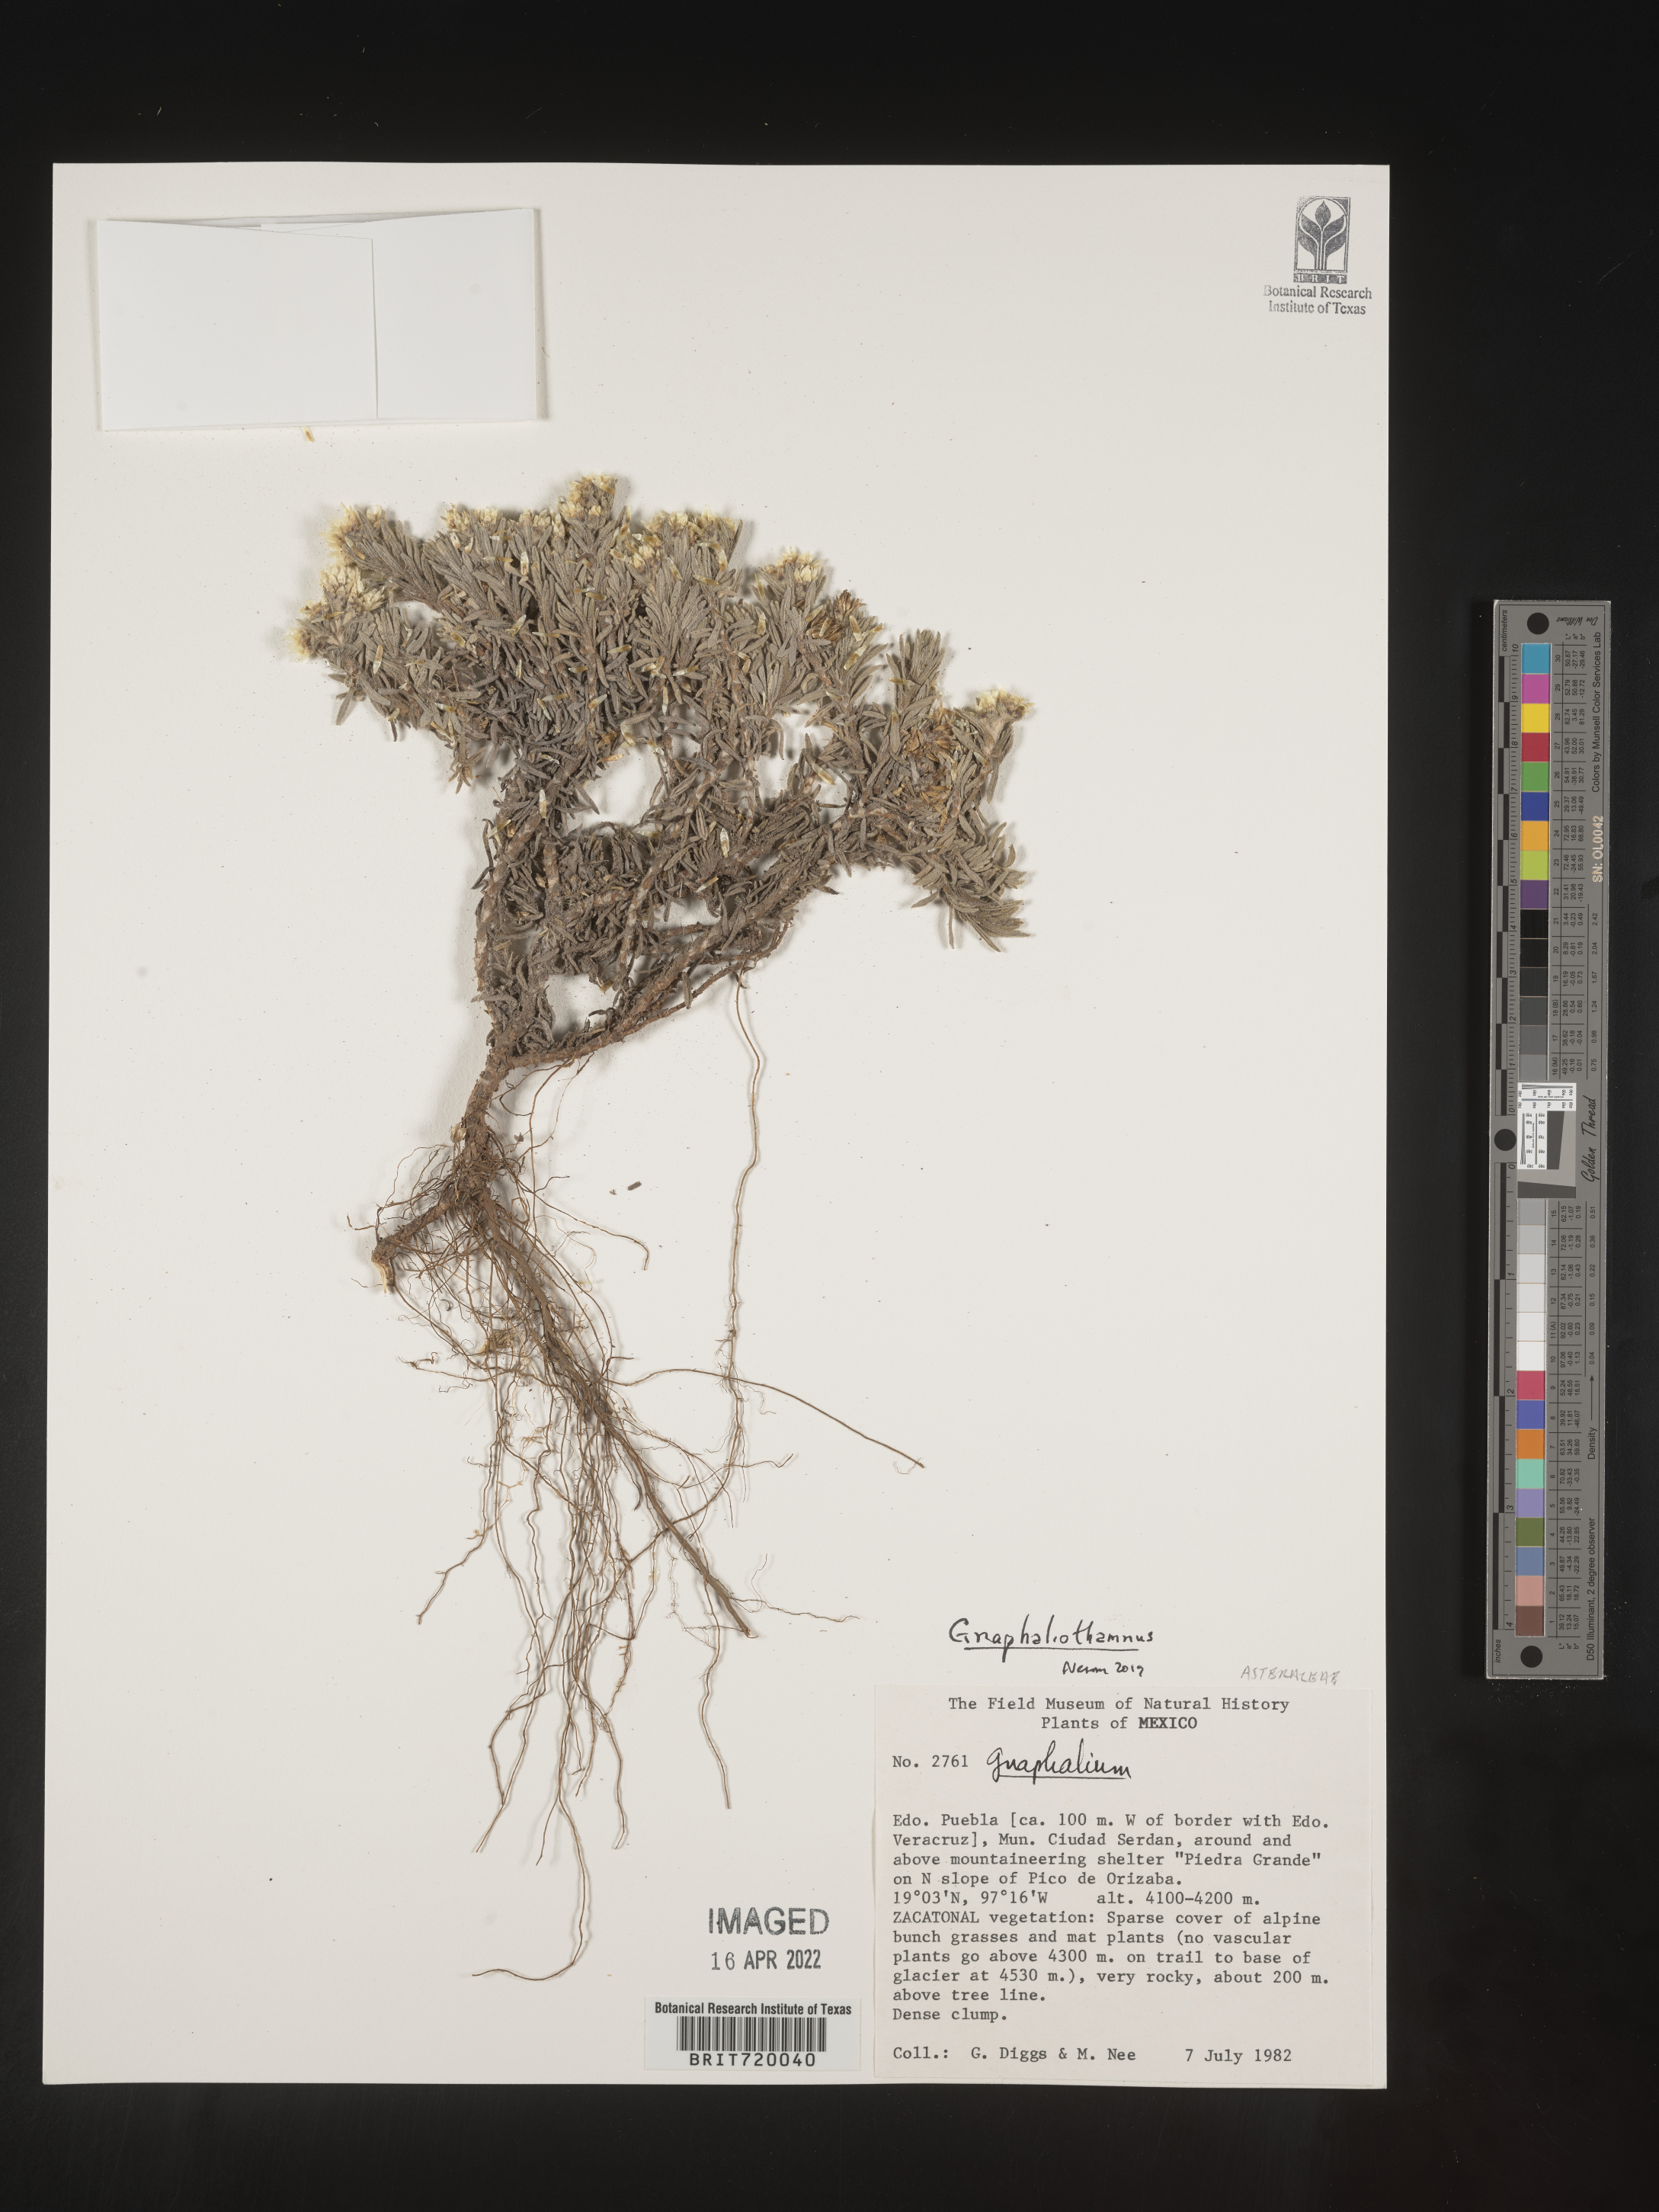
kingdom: Plantae
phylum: Tracheophyta
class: Magnoliopsida
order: Asterales
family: Asteraceae
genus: Gnaphaliothamnus
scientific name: Gnaphaliothamnus
